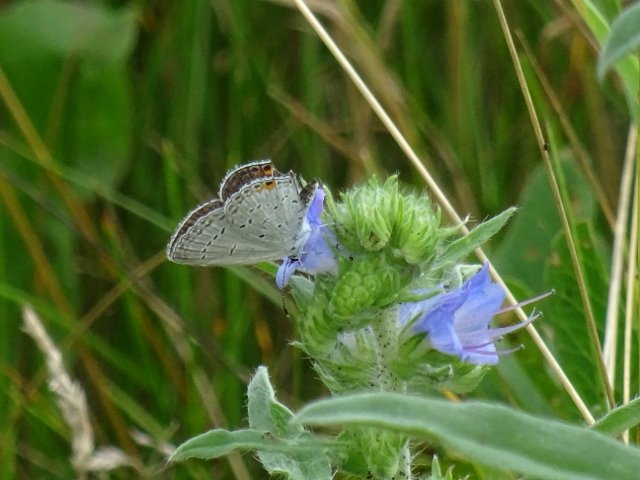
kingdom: Animalia
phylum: Arthropoda
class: Insecta
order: Lepidoptera
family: Lycaenidae
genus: Elkalyce
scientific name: Elkalyce comyntas
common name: Eastern Tailed-Blue
